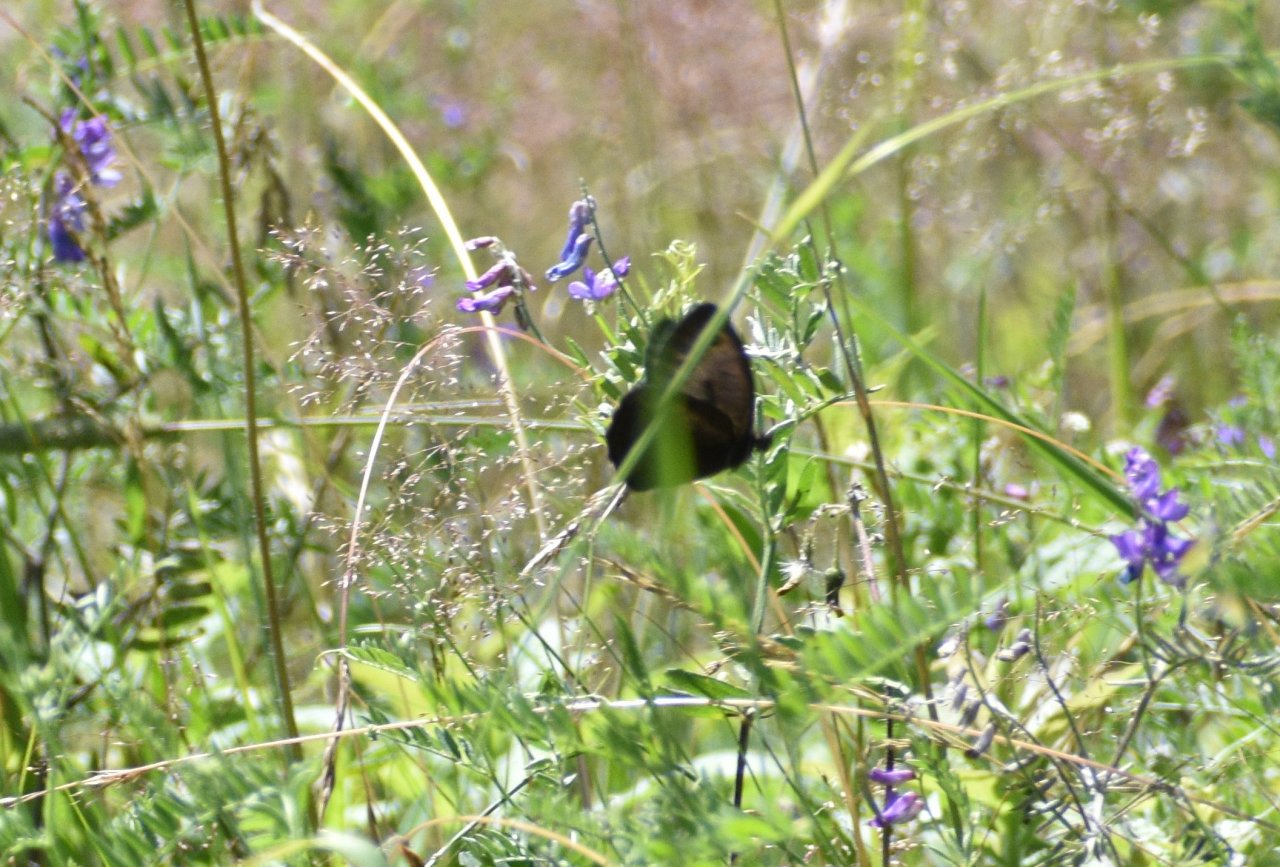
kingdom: Animalia
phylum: Arthropoda
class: Insecta
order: Lepidoptera
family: Nymphalidae
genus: Cercyonis
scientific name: Cercyonis pegala
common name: Common Wood-Nymph
